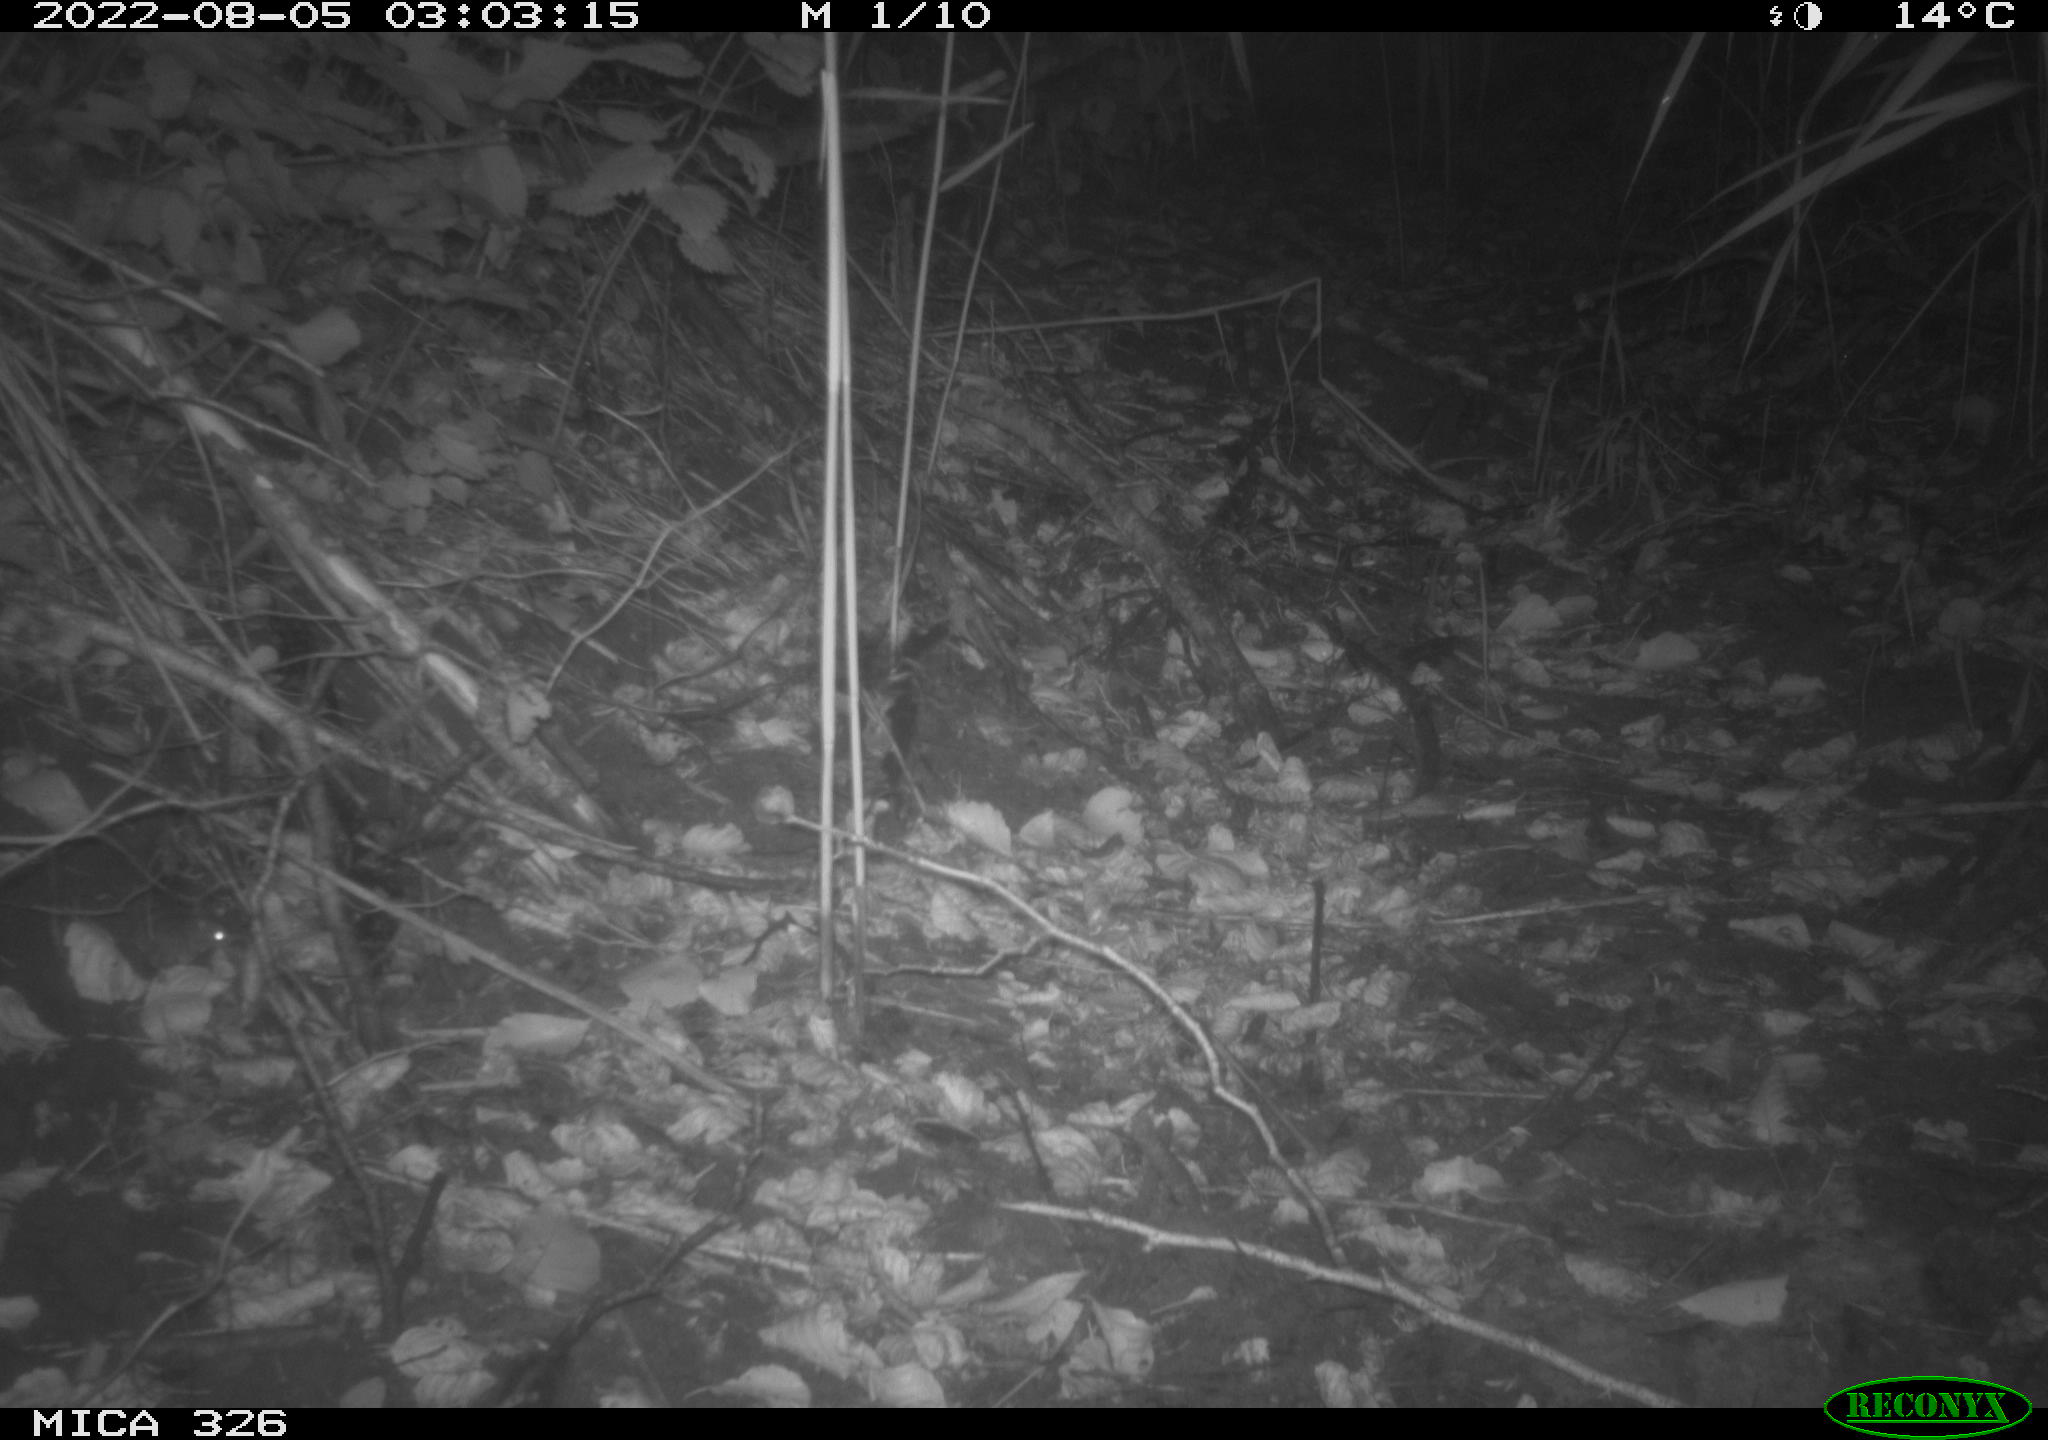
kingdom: Animalia
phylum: Chordata
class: Mammalia
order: Rodentia
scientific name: Rodentia
